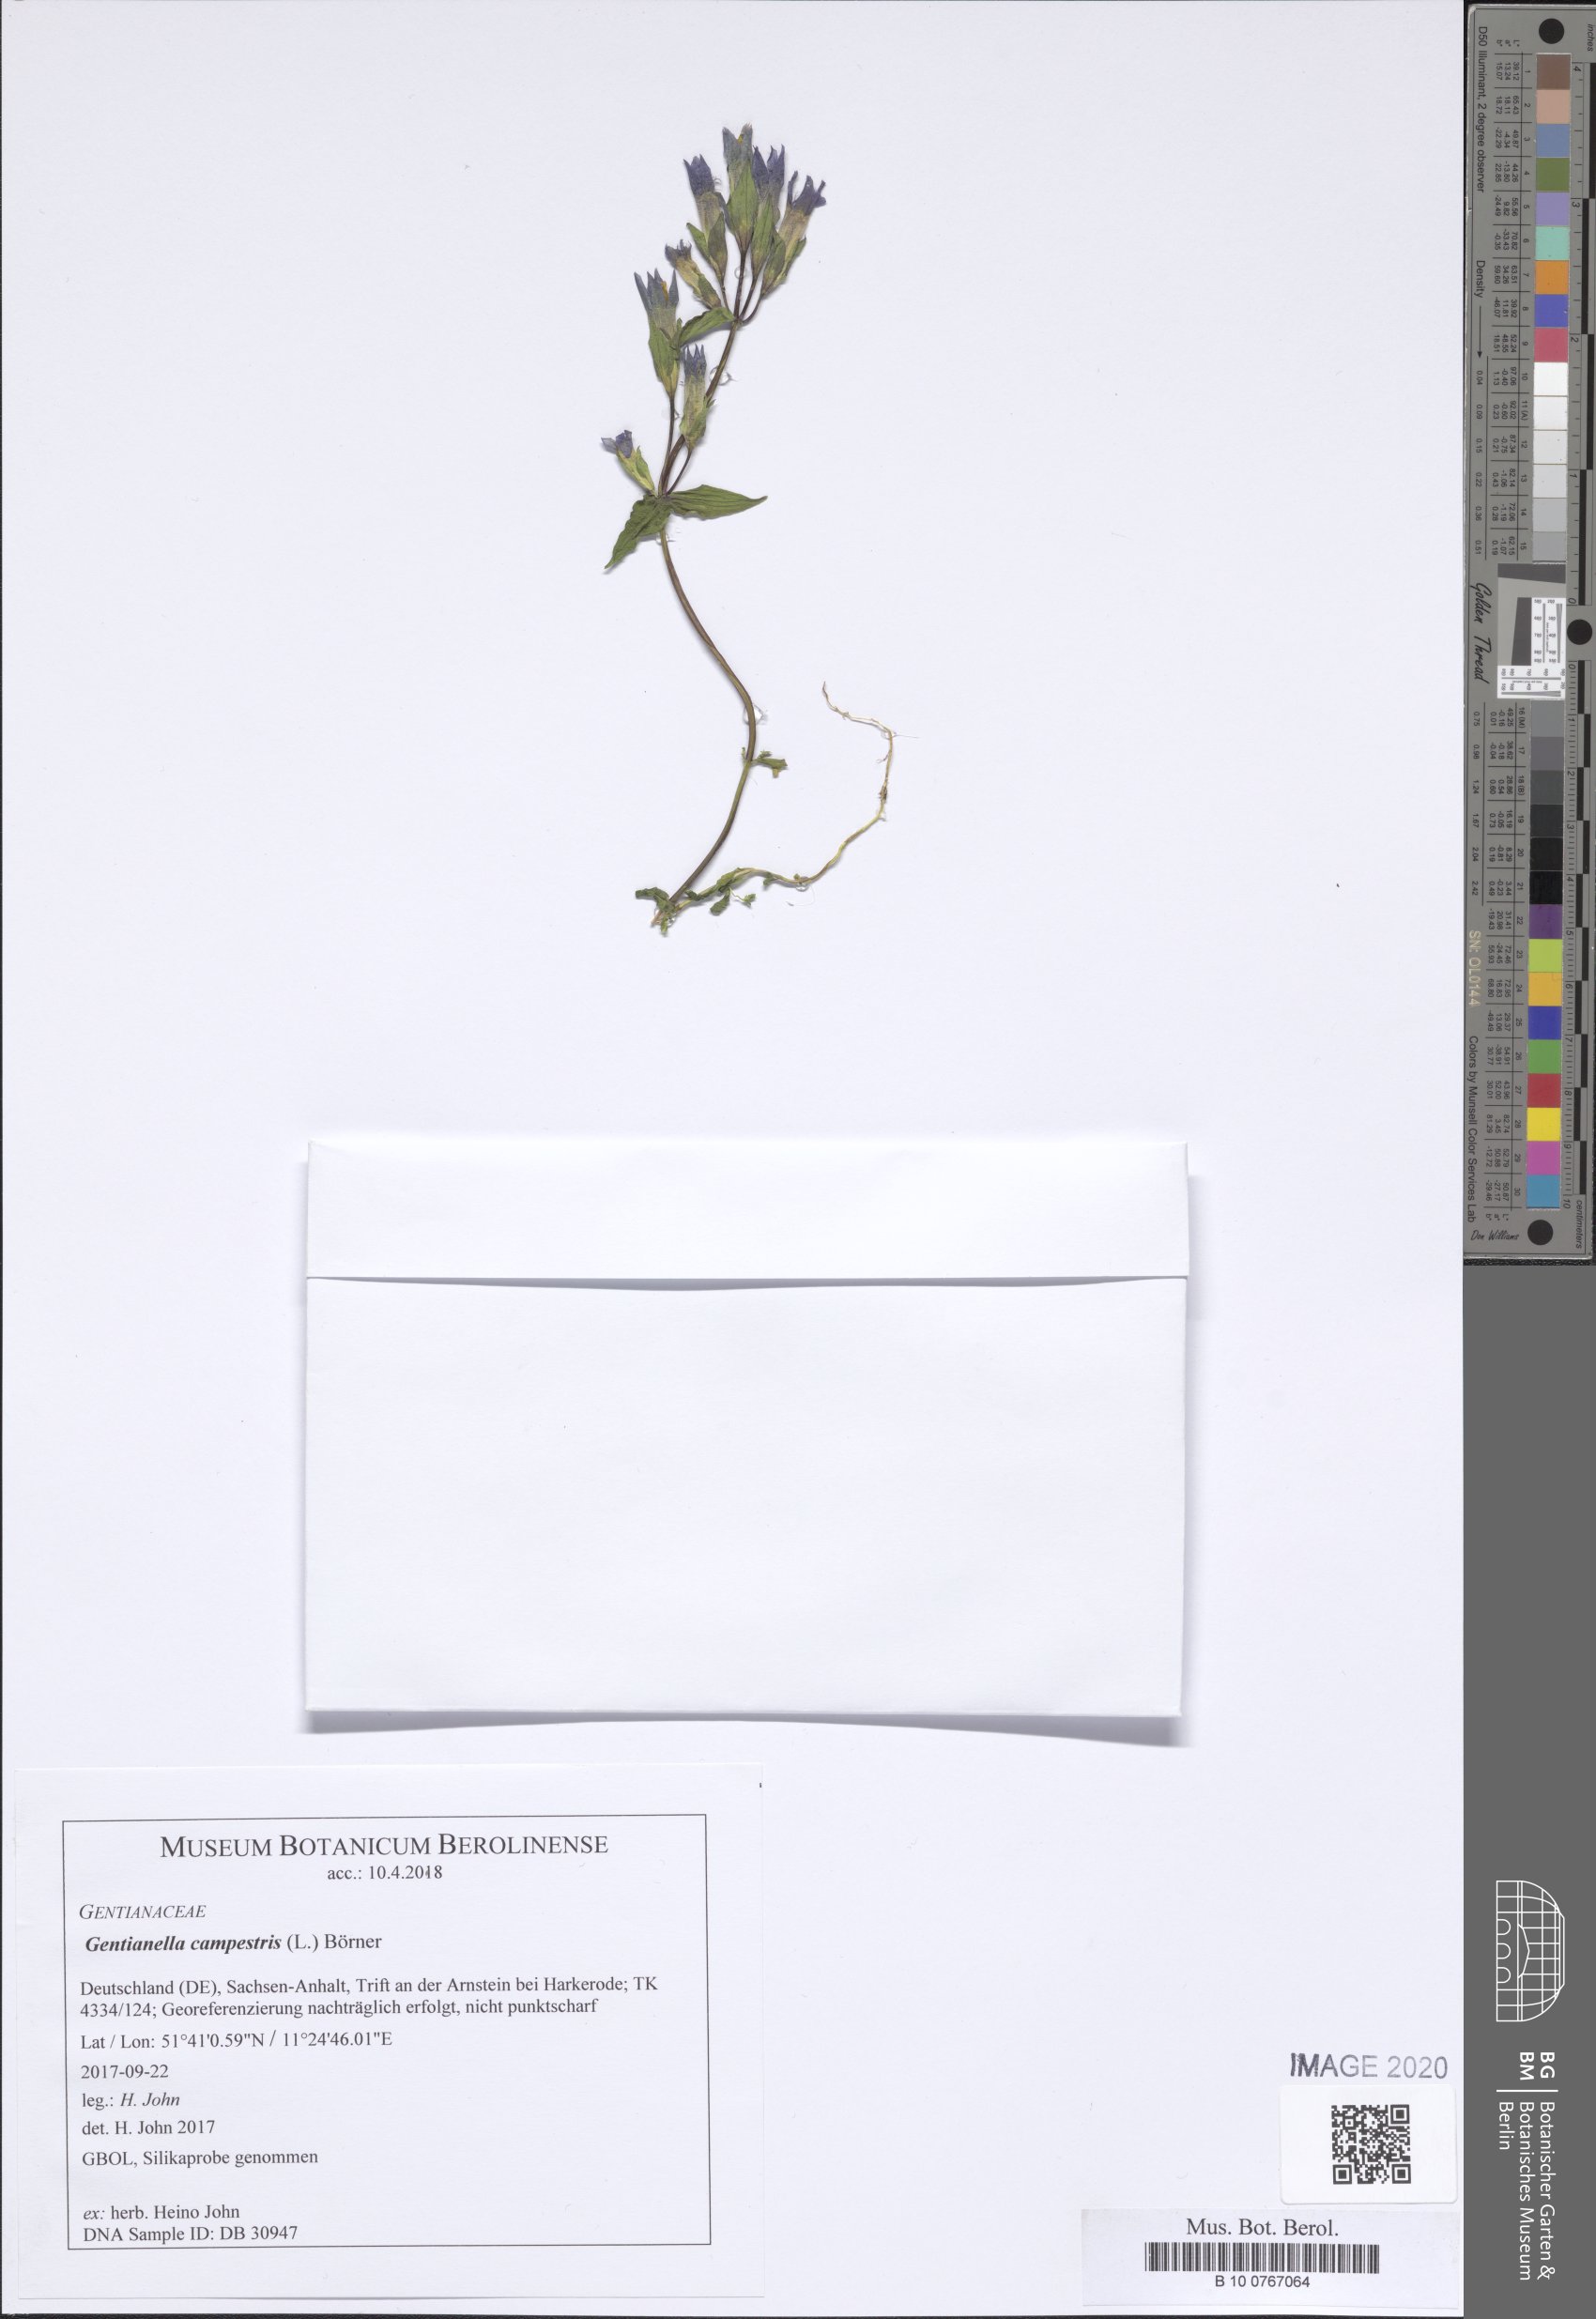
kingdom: Plantae
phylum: Tracheophyta
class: Magnoliopsida
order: Gentianales
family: Gentianaceae
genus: Gentianella
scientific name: Gentianella campestris
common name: Field gentian
